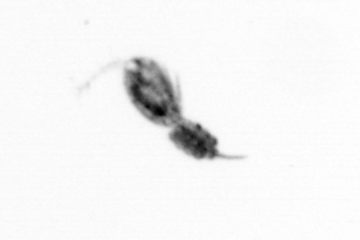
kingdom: Animalia
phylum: Arthropoda
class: Copepoda
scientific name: Copepoda
